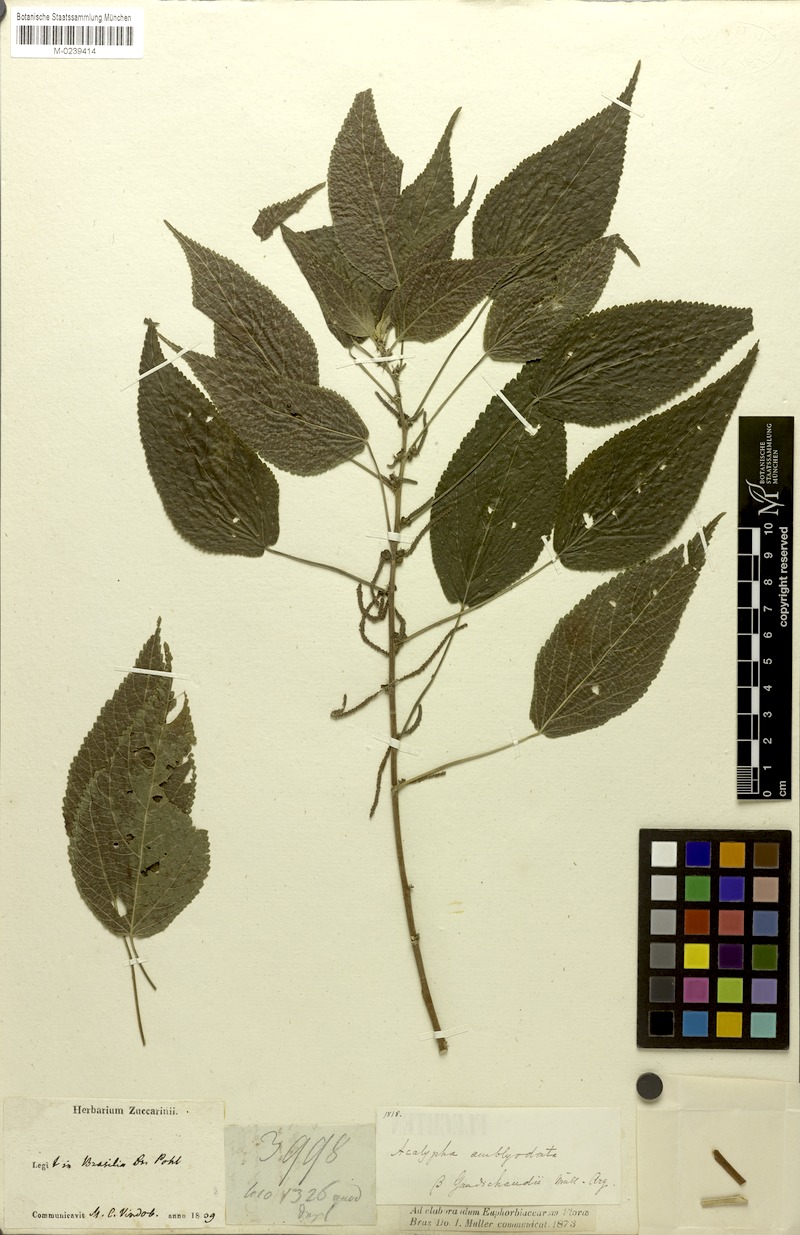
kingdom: Plantae
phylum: Tracheophyta
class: Magnoliopsida
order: Malpighiales
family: Euphorbiaceae
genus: Acalypha
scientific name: Acalypha amblyodonta
